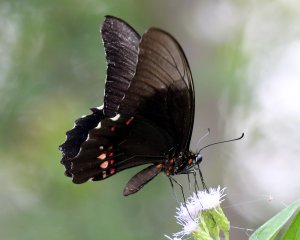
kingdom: Animalia
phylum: Arthropoda
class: Insecta
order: Lepidoptera
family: Papilionidae
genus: Papilio
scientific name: Papilio anchisiades
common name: Ruby-spotted Swallowtail
